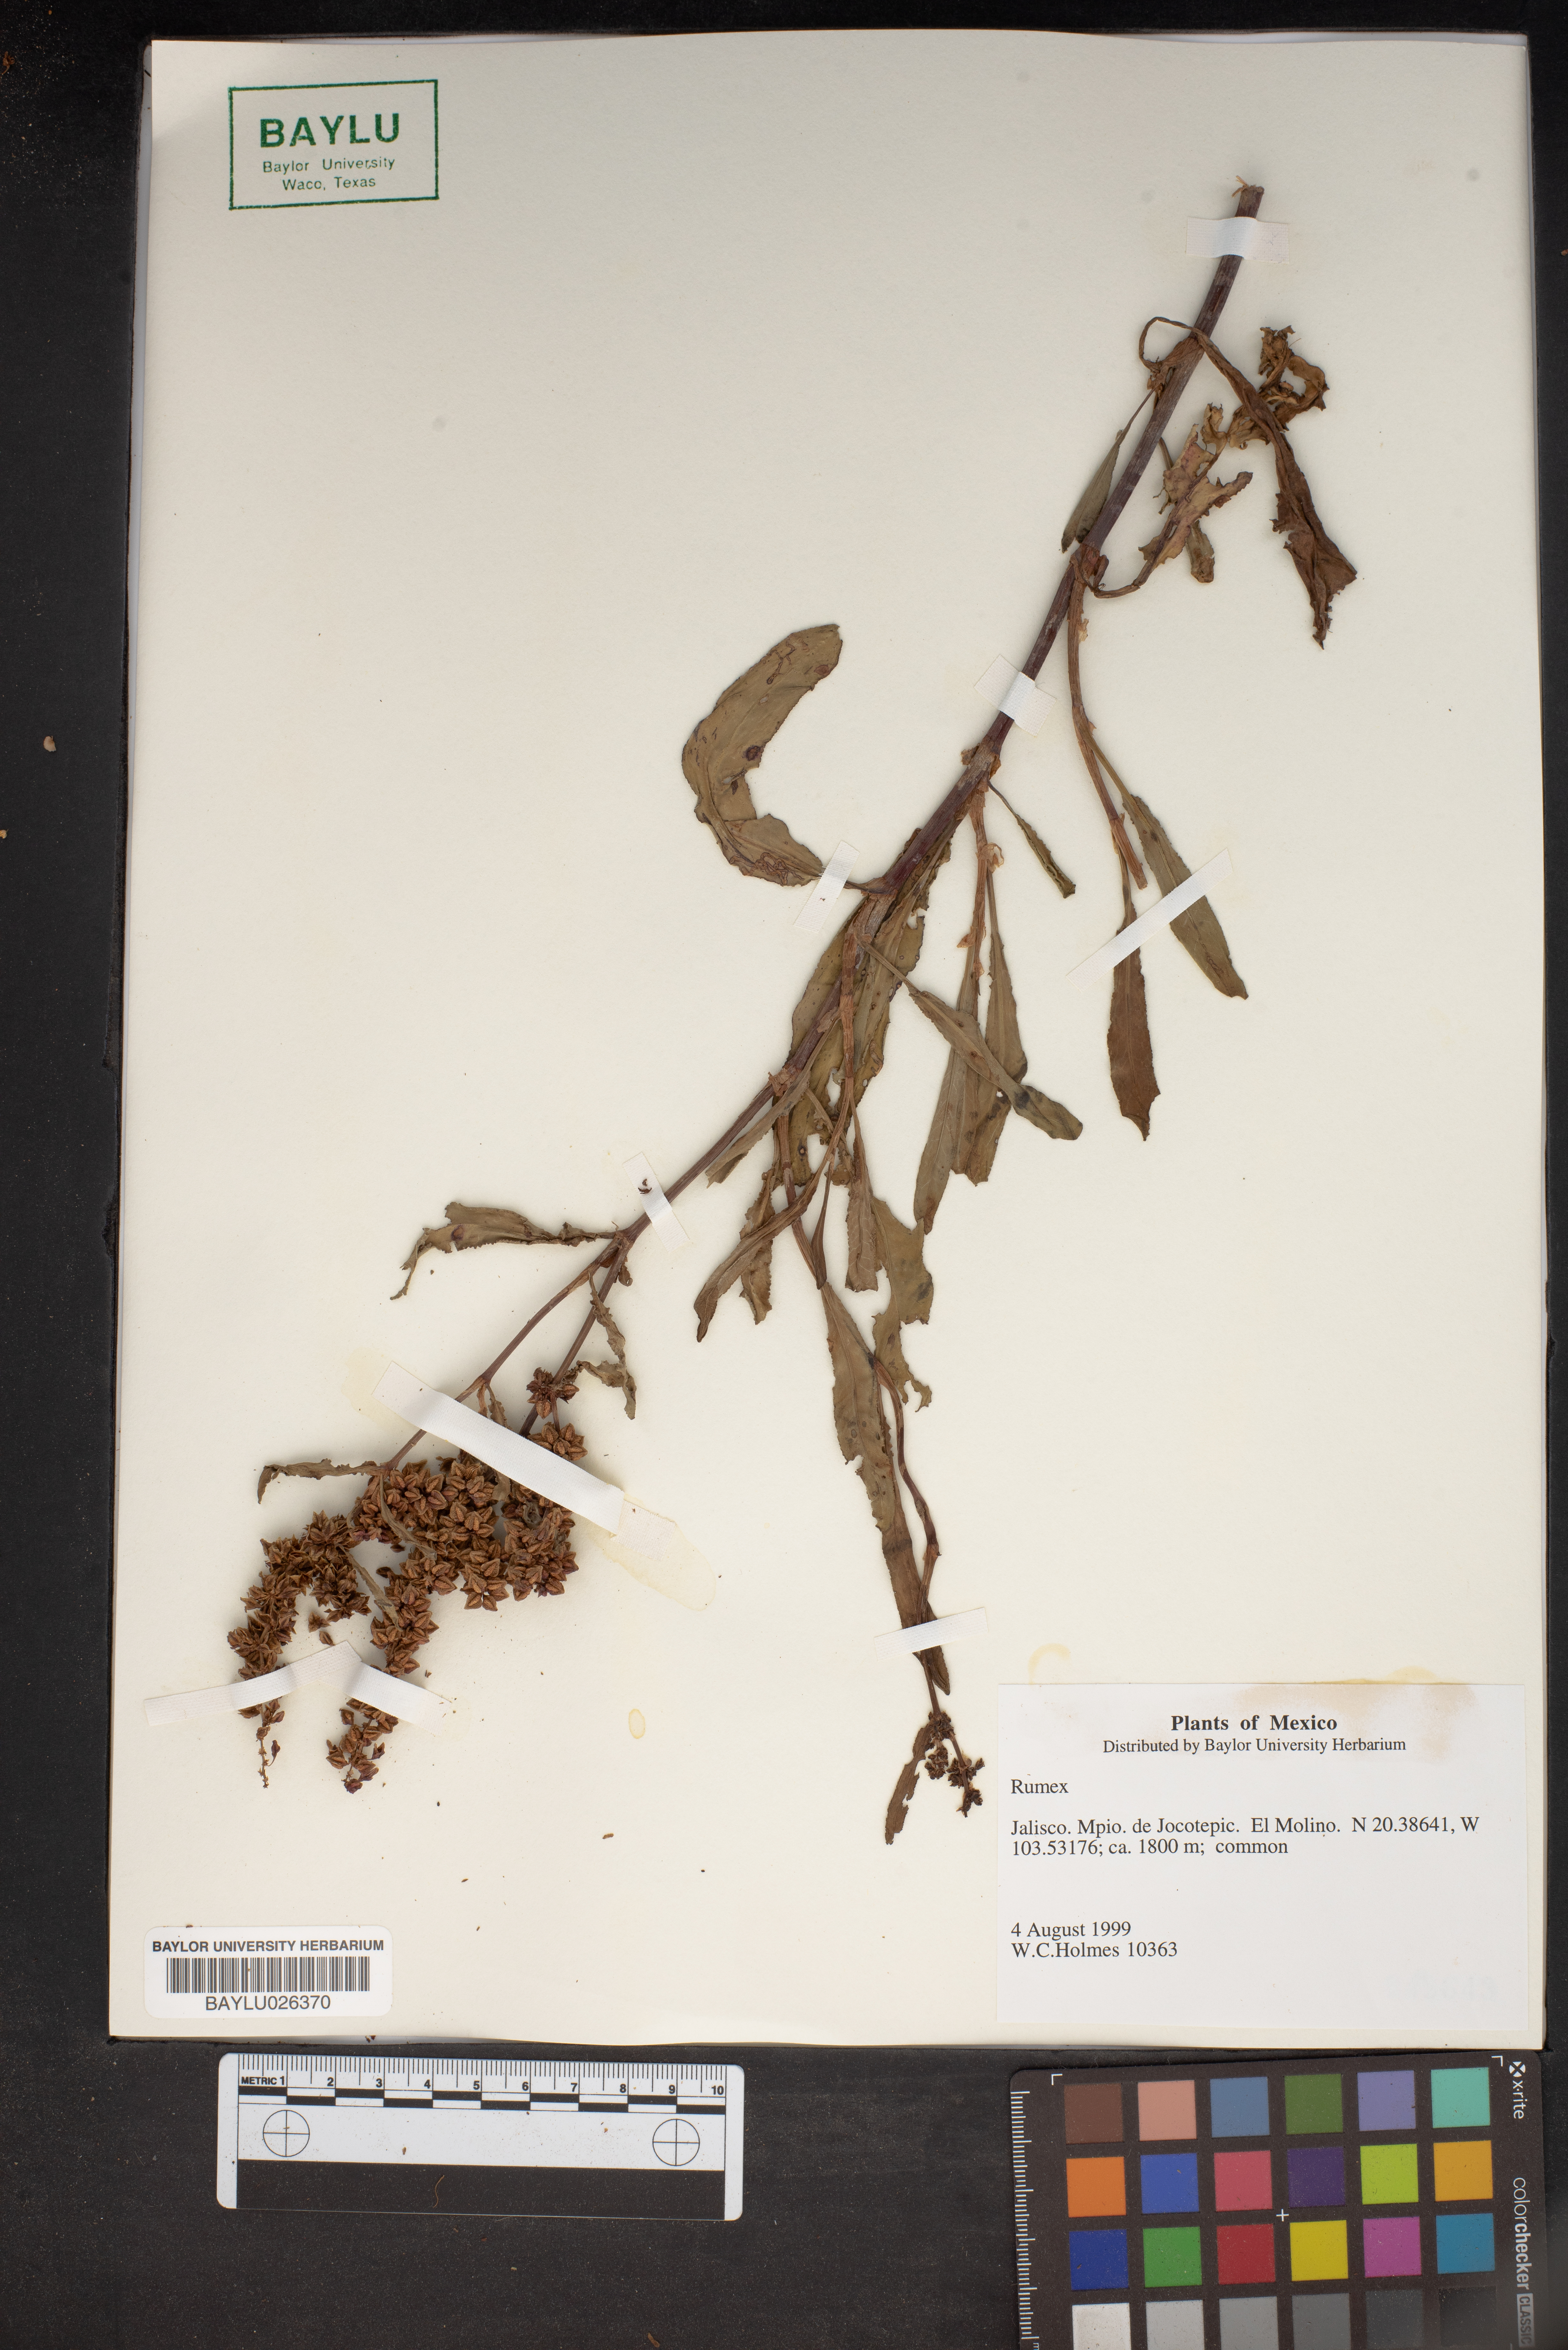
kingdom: Plantae
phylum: Tracheophyta
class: Magnoliopsida
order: Caryophyllales
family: Polygonaceae
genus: Rumex
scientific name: Rumex
